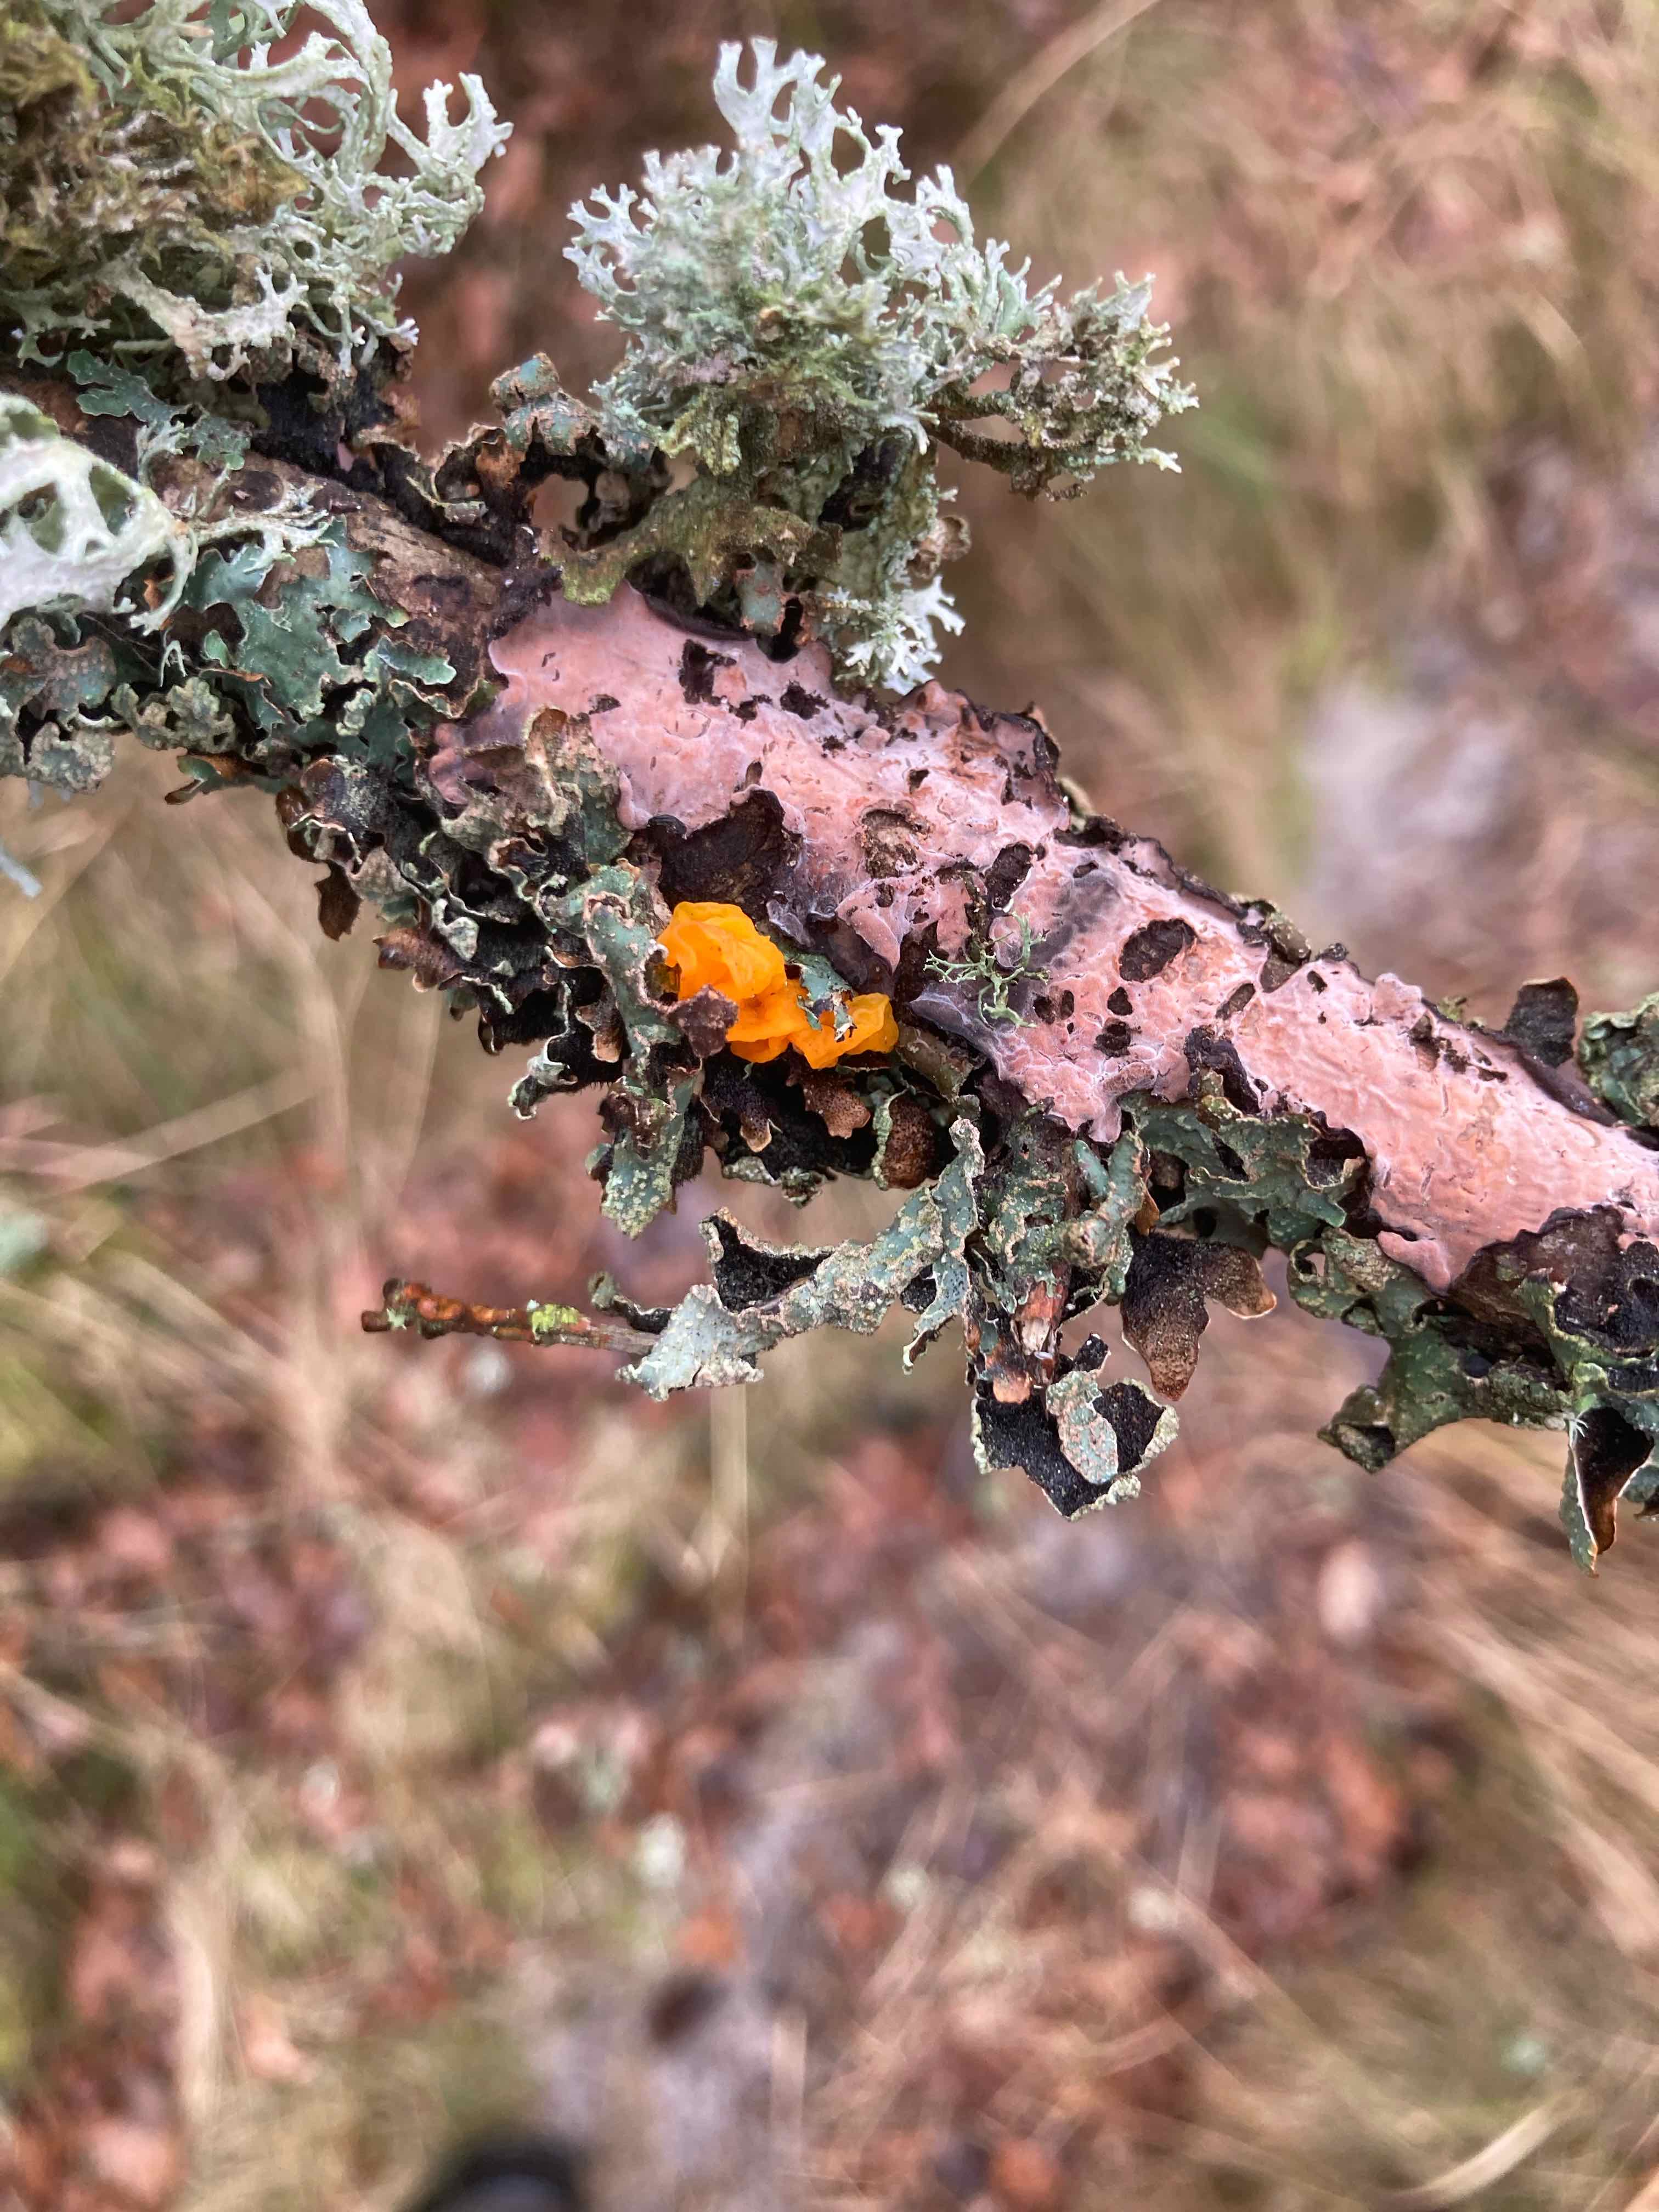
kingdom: Fungi
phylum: Basidiomycota
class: Agaricomycetes
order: Russulales
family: Peniophoraceae
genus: Peniophora
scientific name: Peniophora quercina
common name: ege-voksskind
